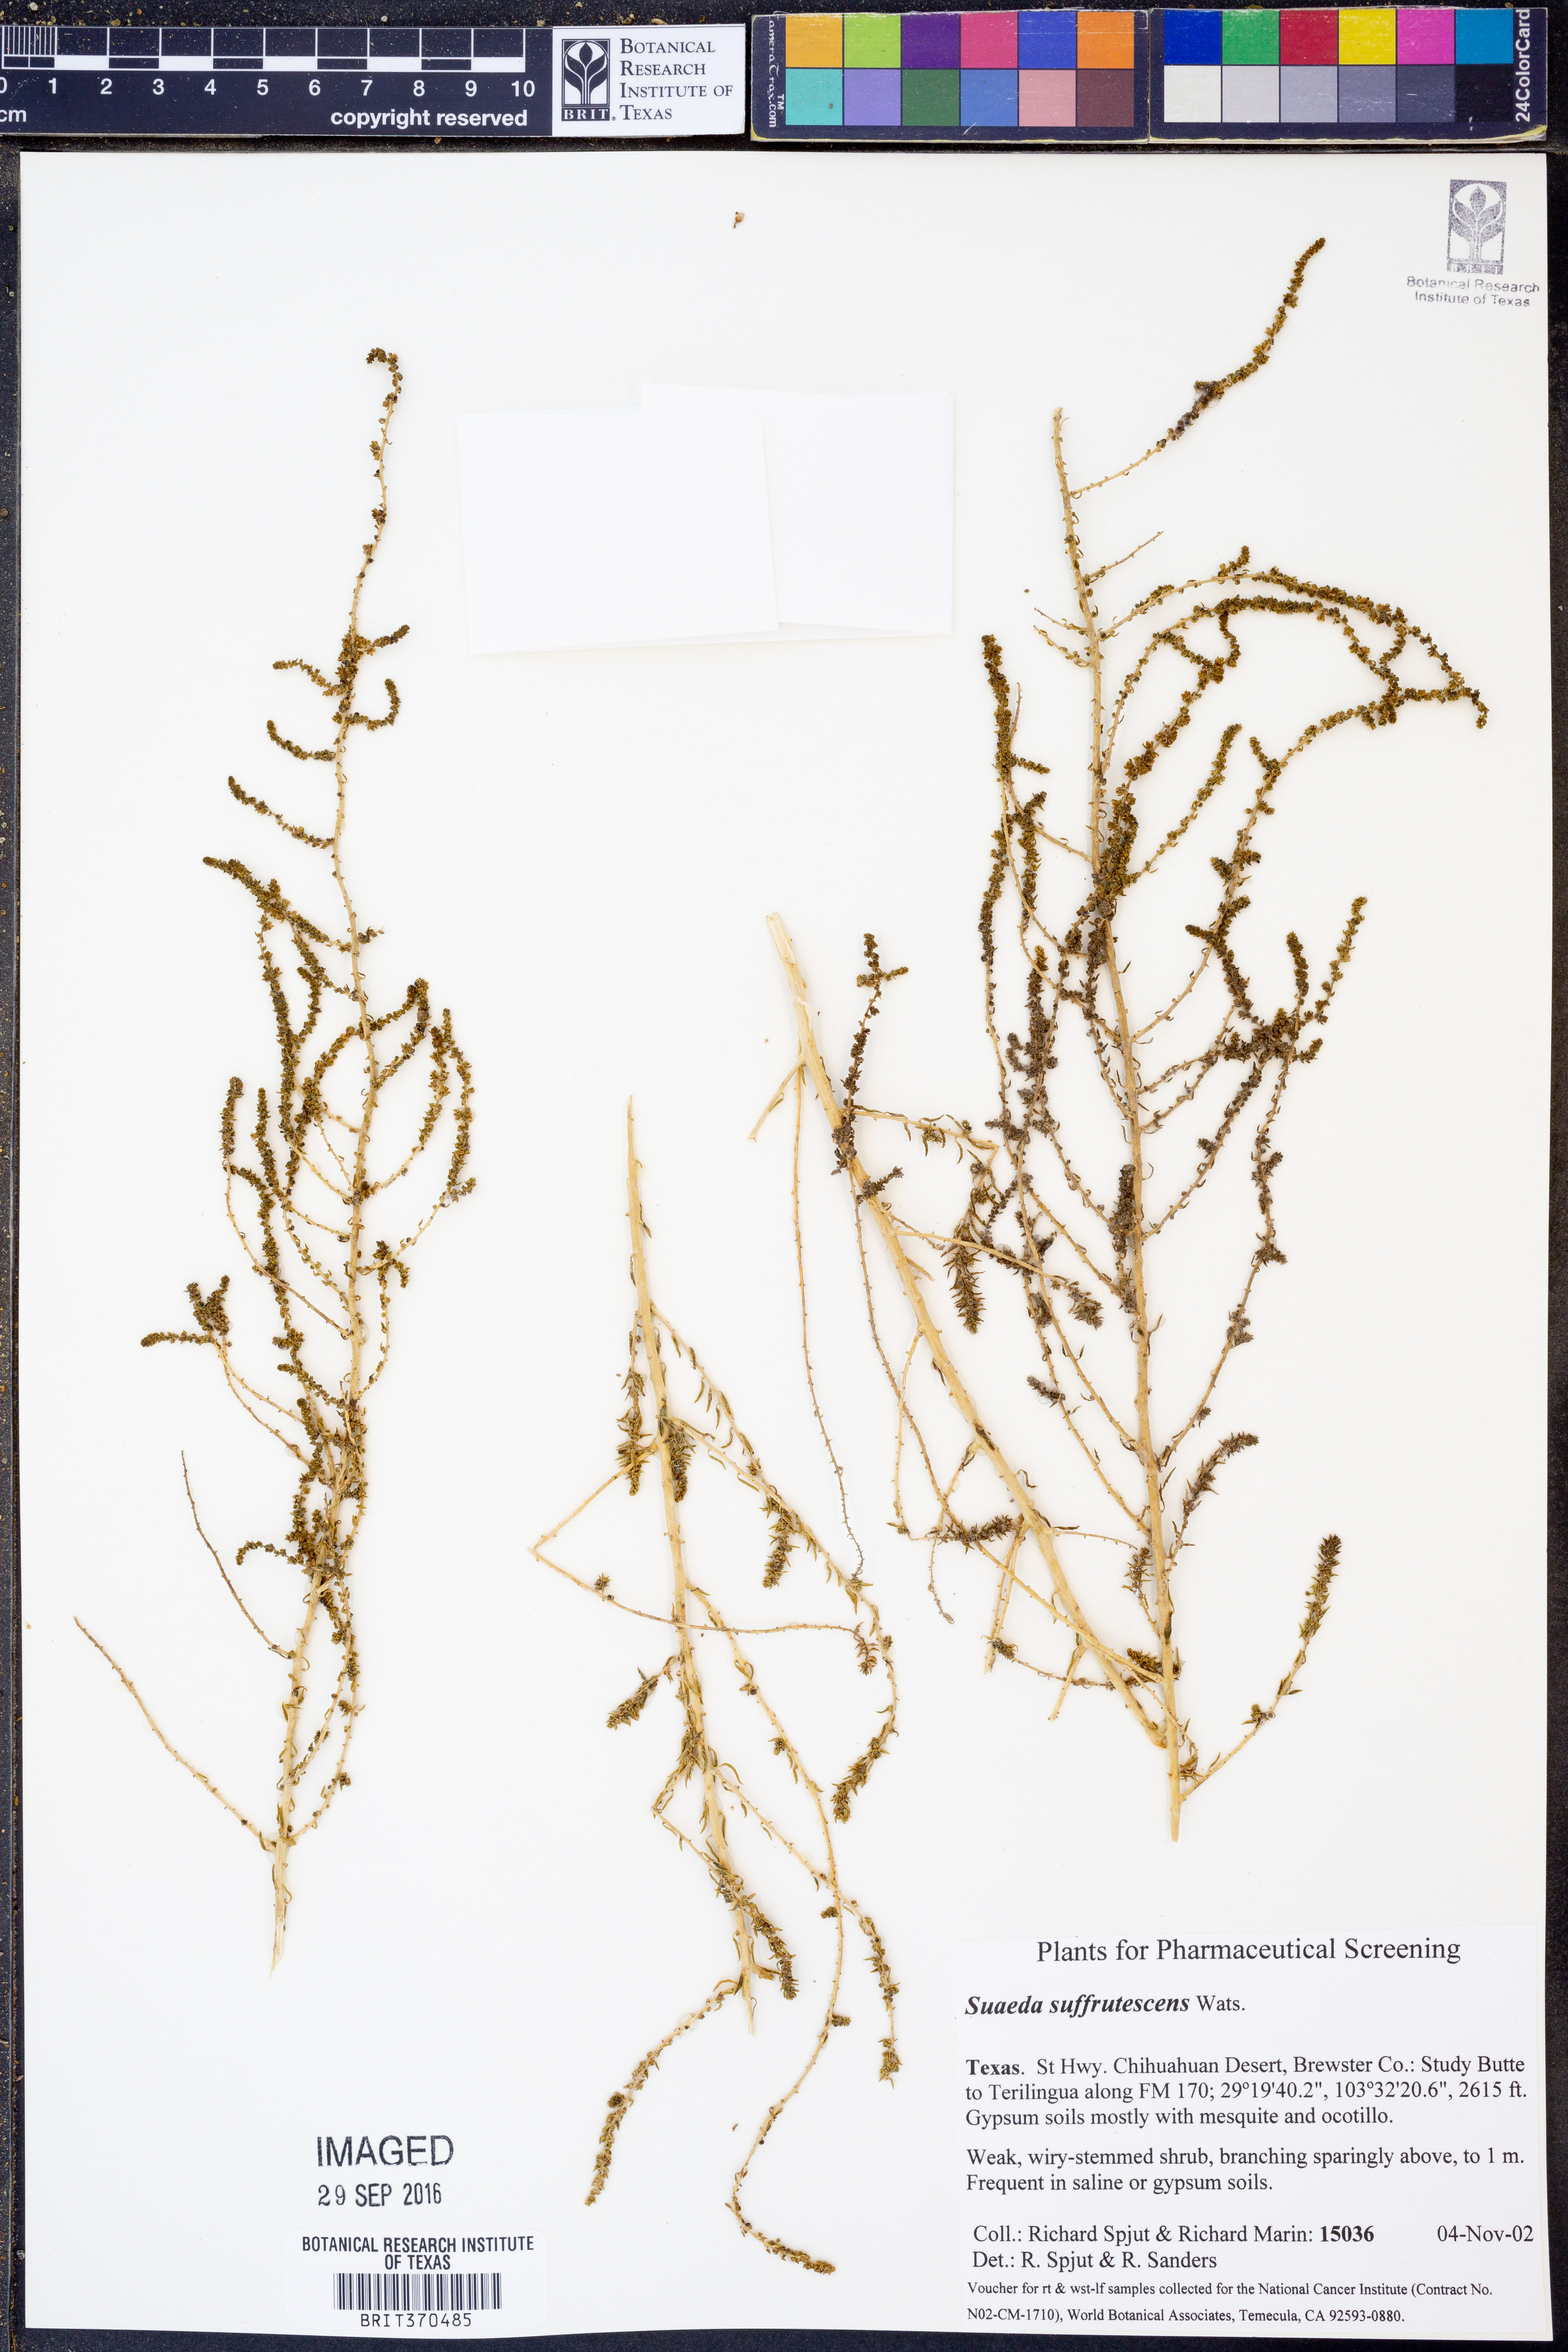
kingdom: Plantae
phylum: Tracheophyta
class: Magnoliopsida
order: Caryophyllales
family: Amaranthaceae
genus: Suaeda
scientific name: Suaeda suffrutescens
